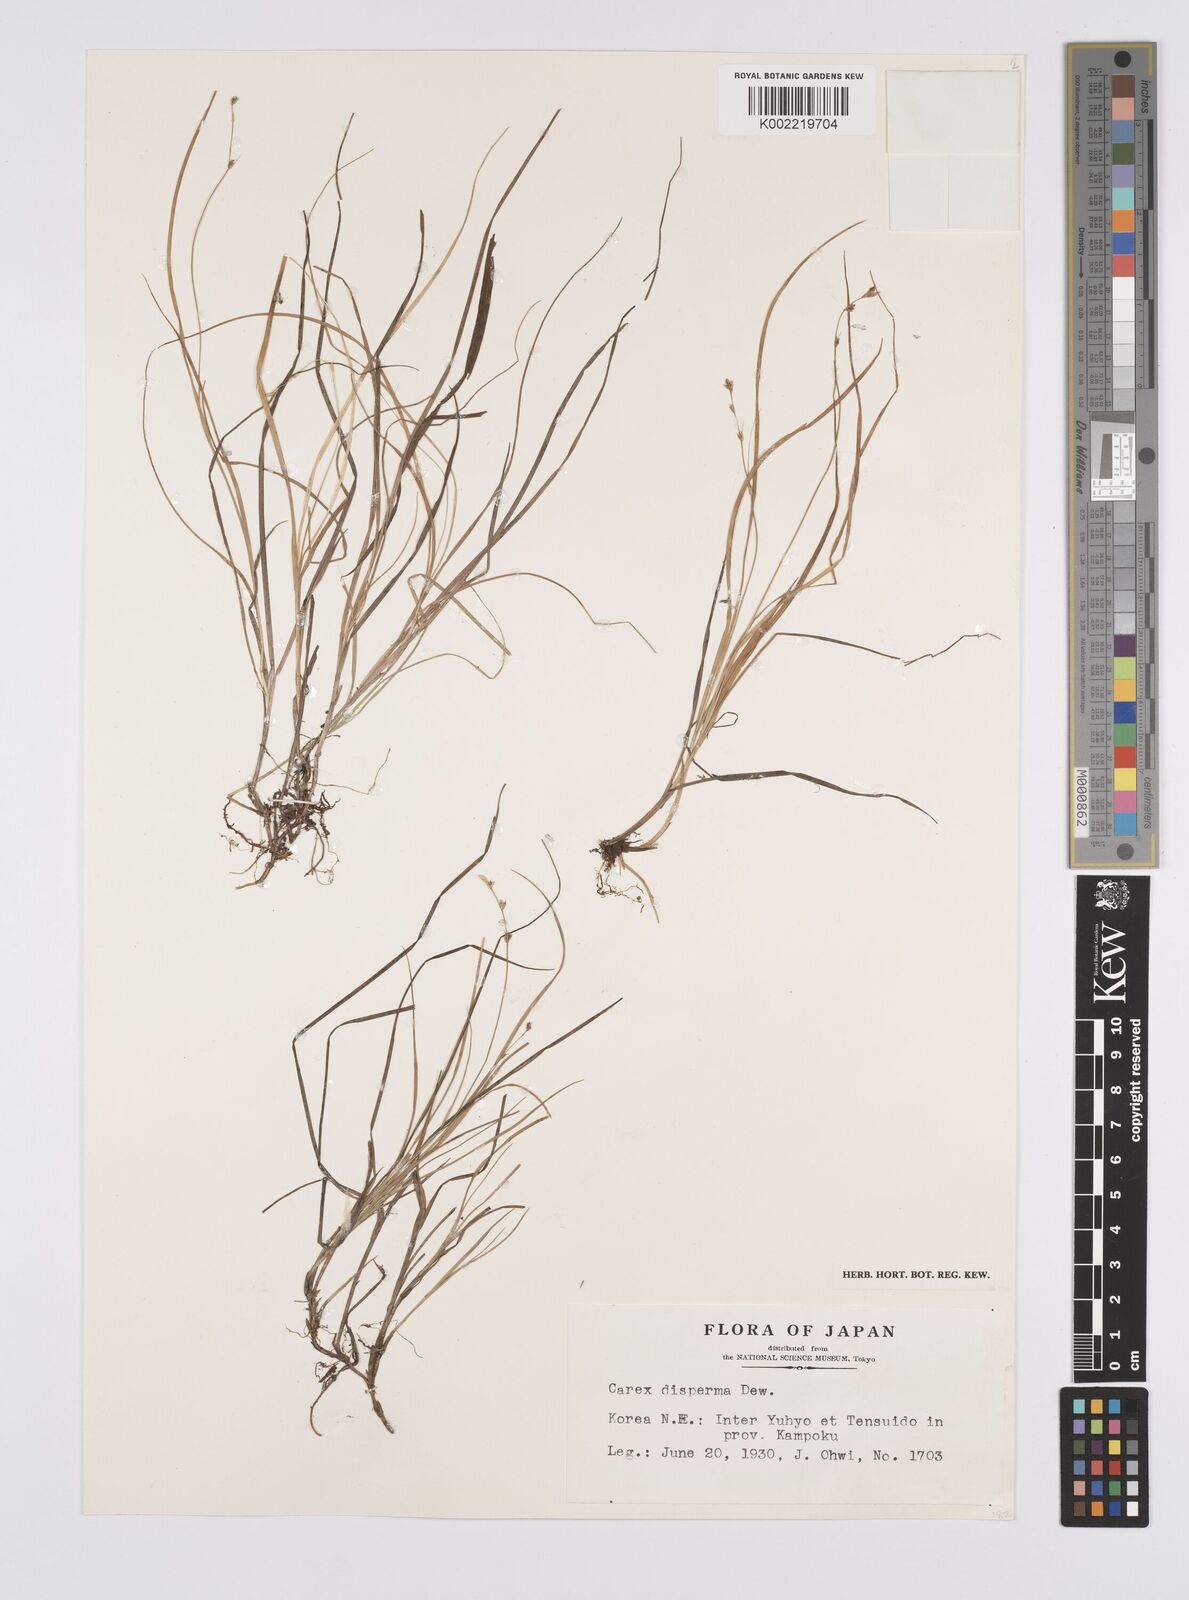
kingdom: Plantae
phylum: Tracheophyta
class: Liliopsida
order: Poales
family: Cyperaceae
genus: Carex
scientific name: Carex disperma
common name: Short-leaved sedge
